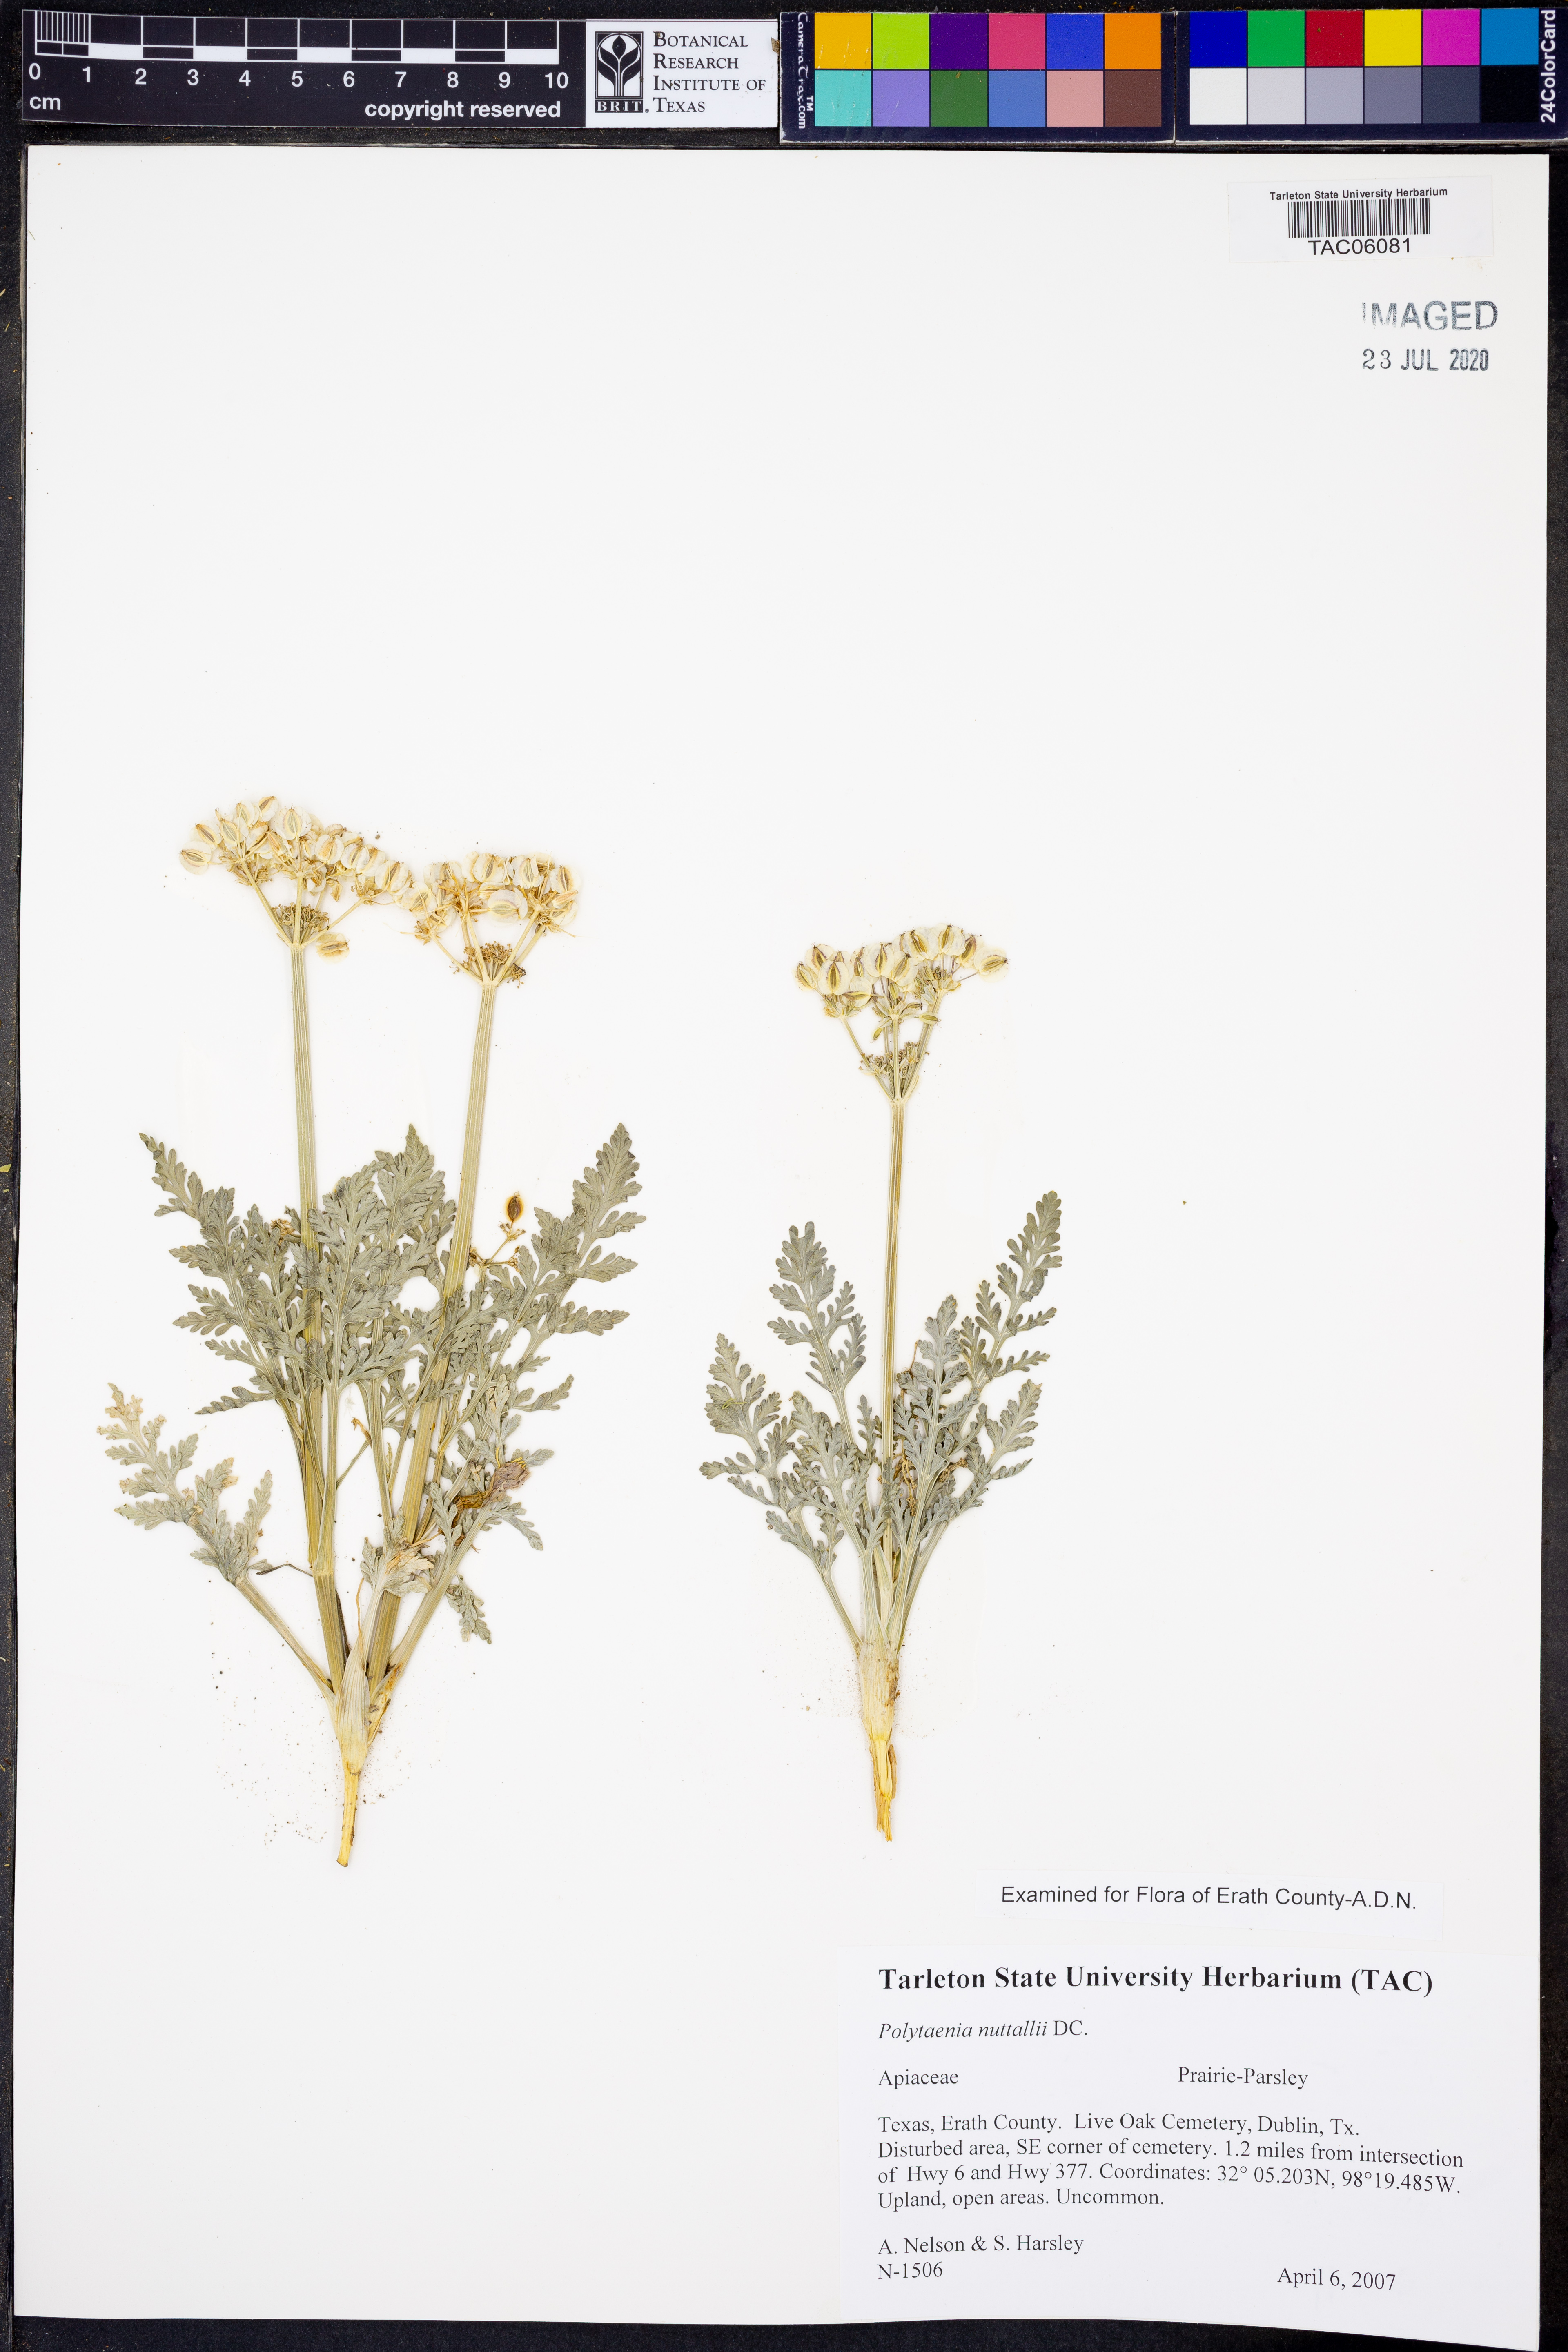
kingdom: Plantae
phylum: Tracheophyta
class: Magnoliopsida
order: Apiales
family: Apiaceae
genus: Polytaenia
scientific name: Polytaenia nuttallii
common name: Prairie-parsley
